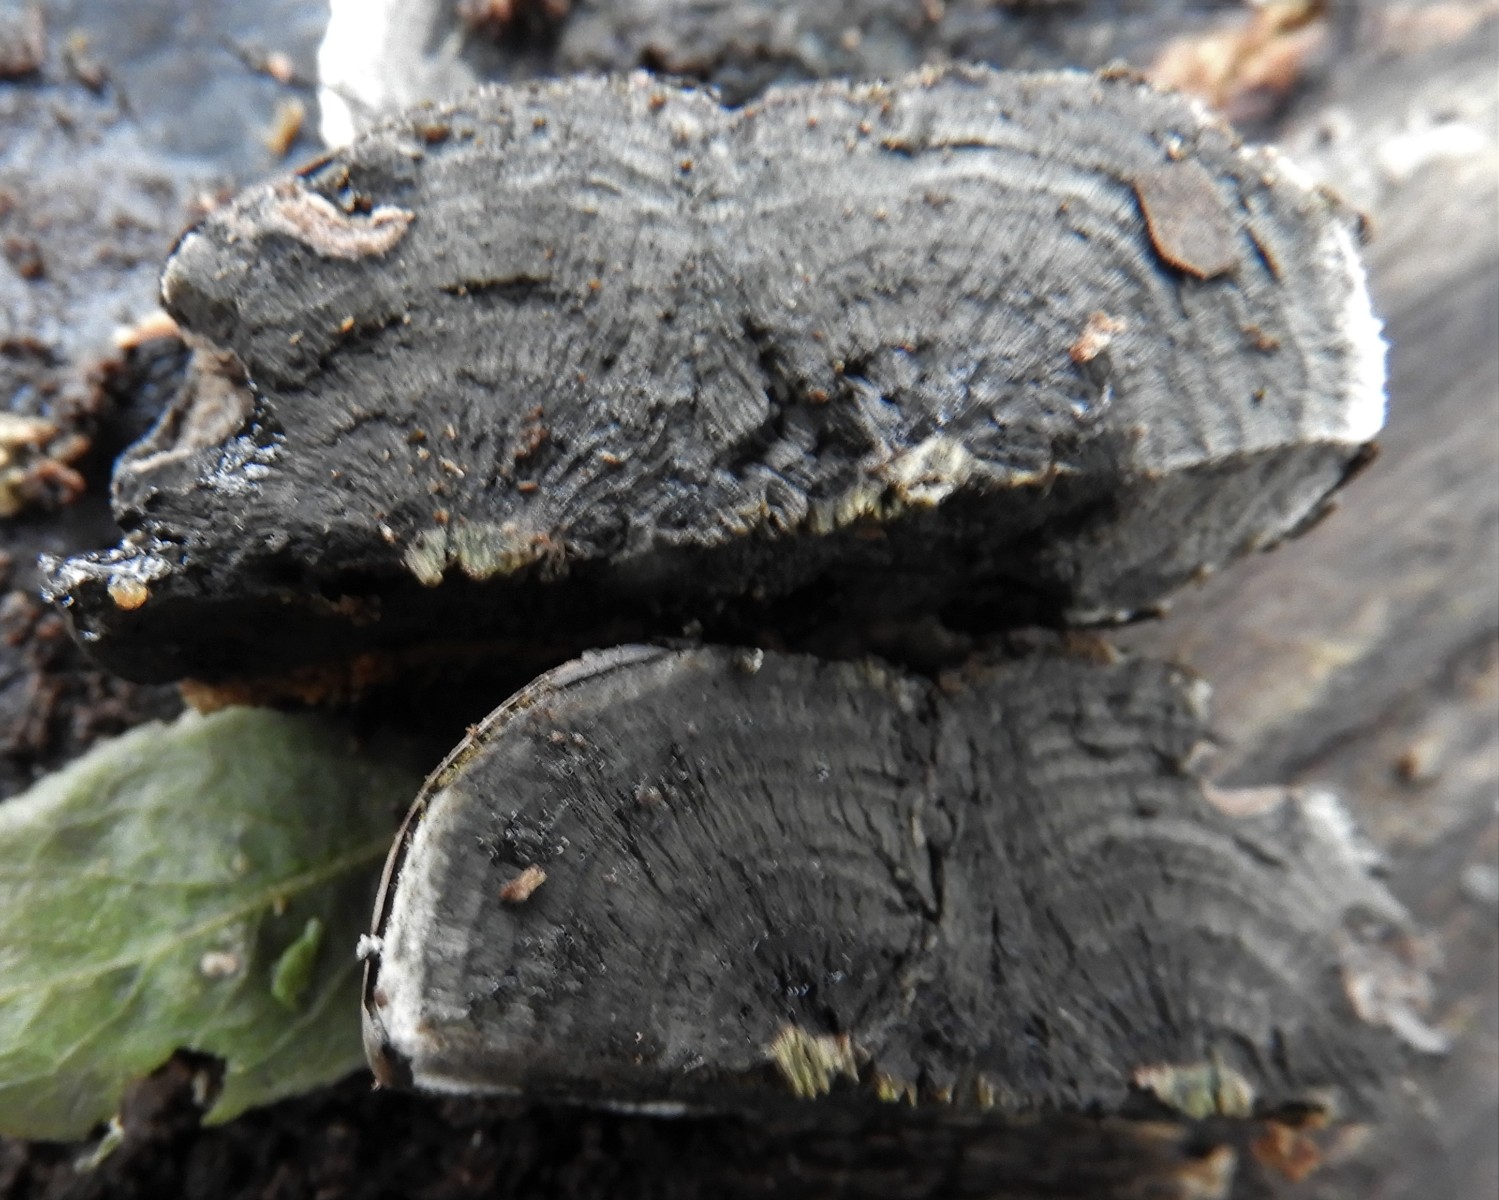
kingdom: Fungi
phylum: Ascomycota
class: Sordariomycetes
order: Xylariales
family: Hypoxylaceae
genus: Daldinia
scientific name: Daldinia concentrica
